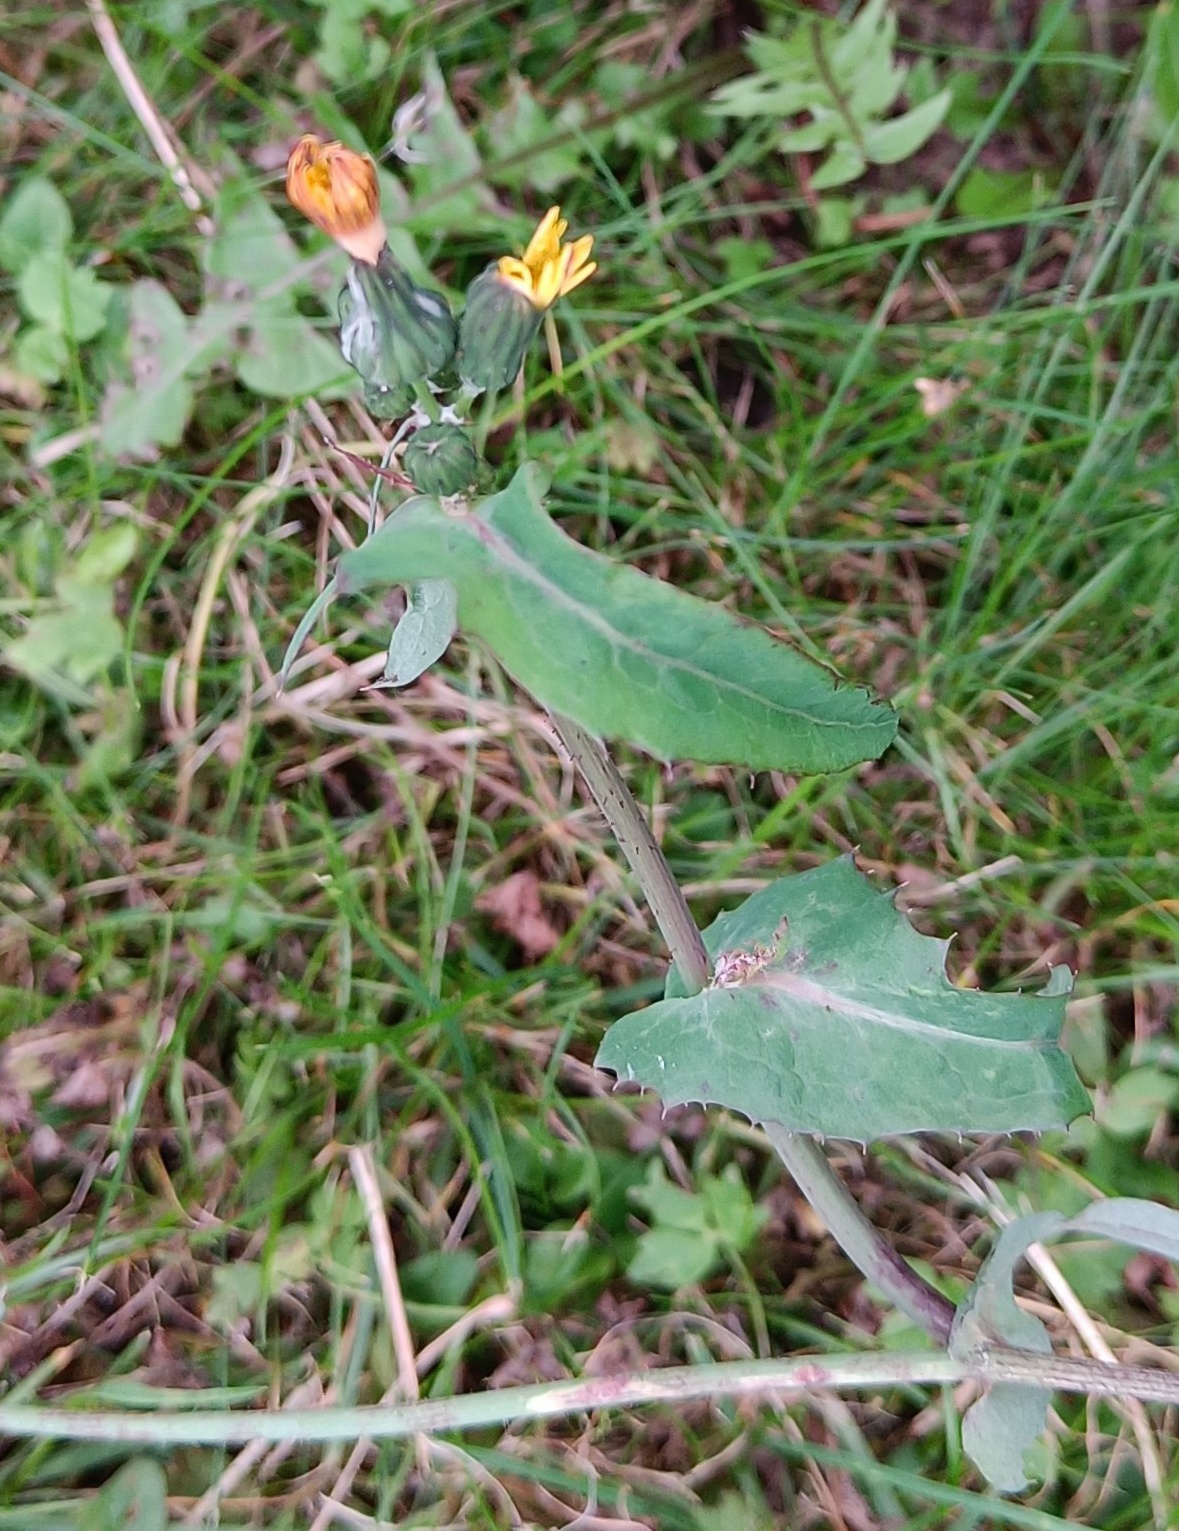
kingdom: Plantae
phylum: Tracheophyta
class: Magnoliopsida
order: Asterales
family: Asteraceae
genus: Sonchus
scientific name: Sonchus oleraceus
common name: Almindelig svinemælk
